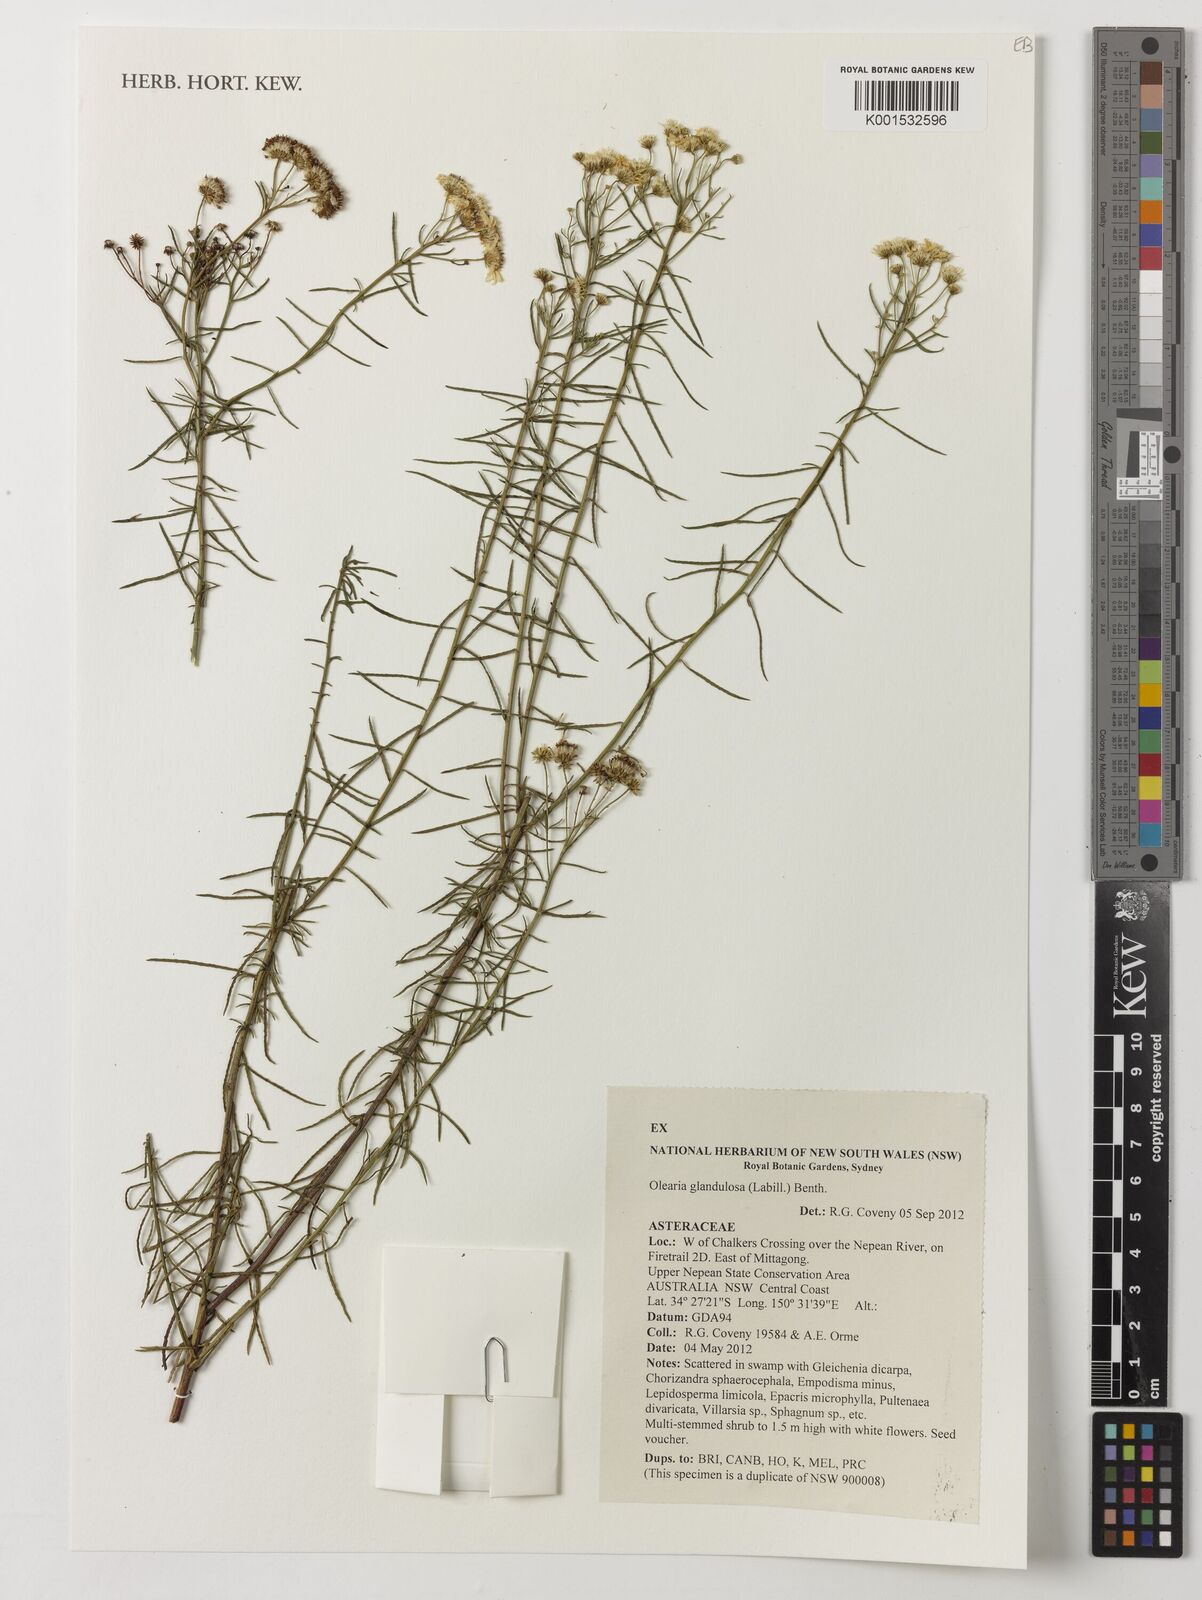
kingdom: Plantae
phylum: Tracheophyta
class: Magnoliopsida
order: Asterales
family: Asteraceae
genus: Spongotrichum
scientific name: Spongotrichum glandulosum
